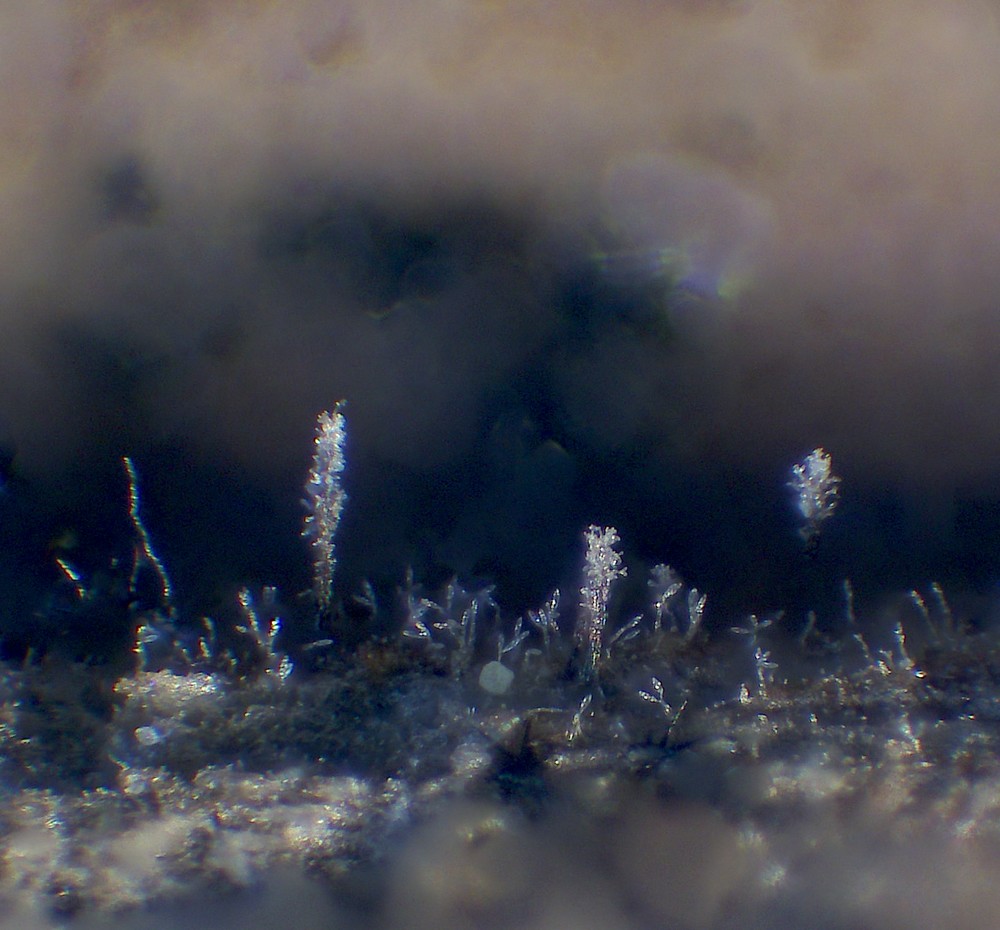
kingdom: Fungi
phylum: Ascomycota
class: Sordariomycetes
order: Xylariales
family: Diatrypaceae
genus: Phaeoisaria
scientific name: Phaeoisaria clematidis
